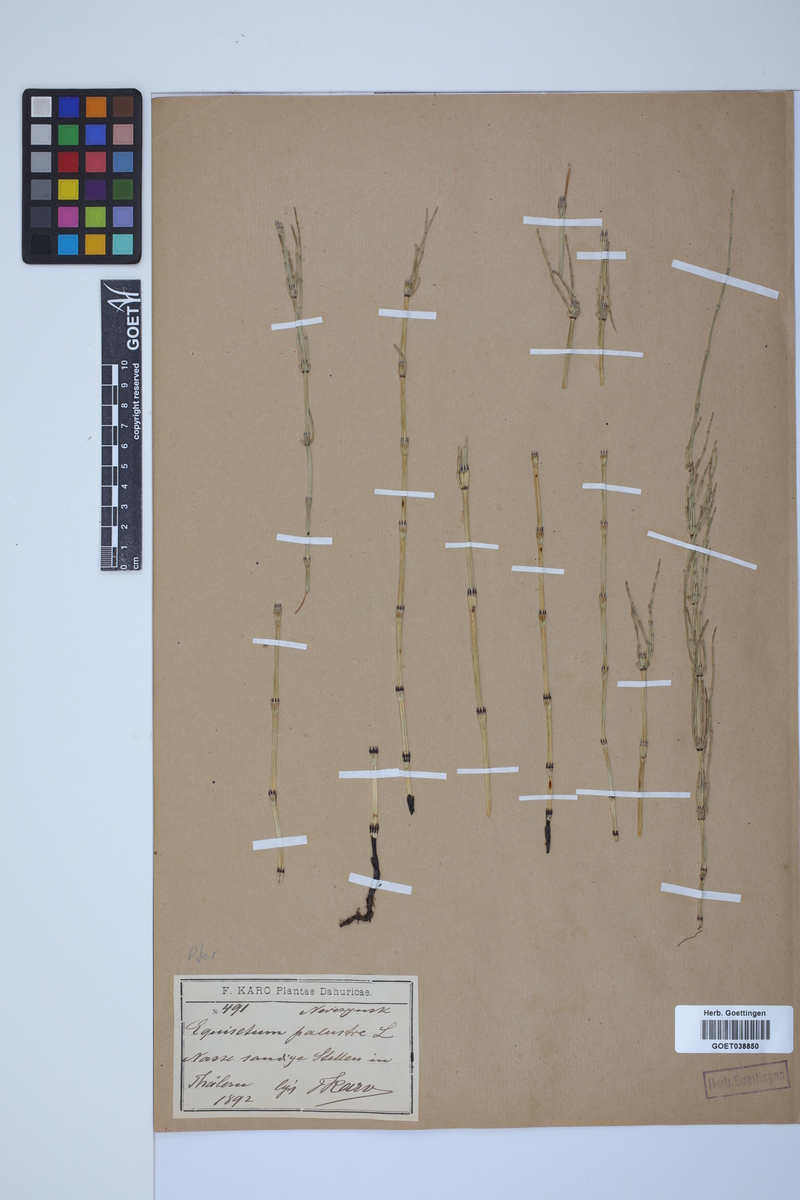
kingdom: Plantae
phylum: Tracheophyta
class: Polypodiopsida
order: Equisetales
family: Equisetaceae
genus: Equisetum
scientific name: Equisetum palustre
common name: Marsh horsetail
